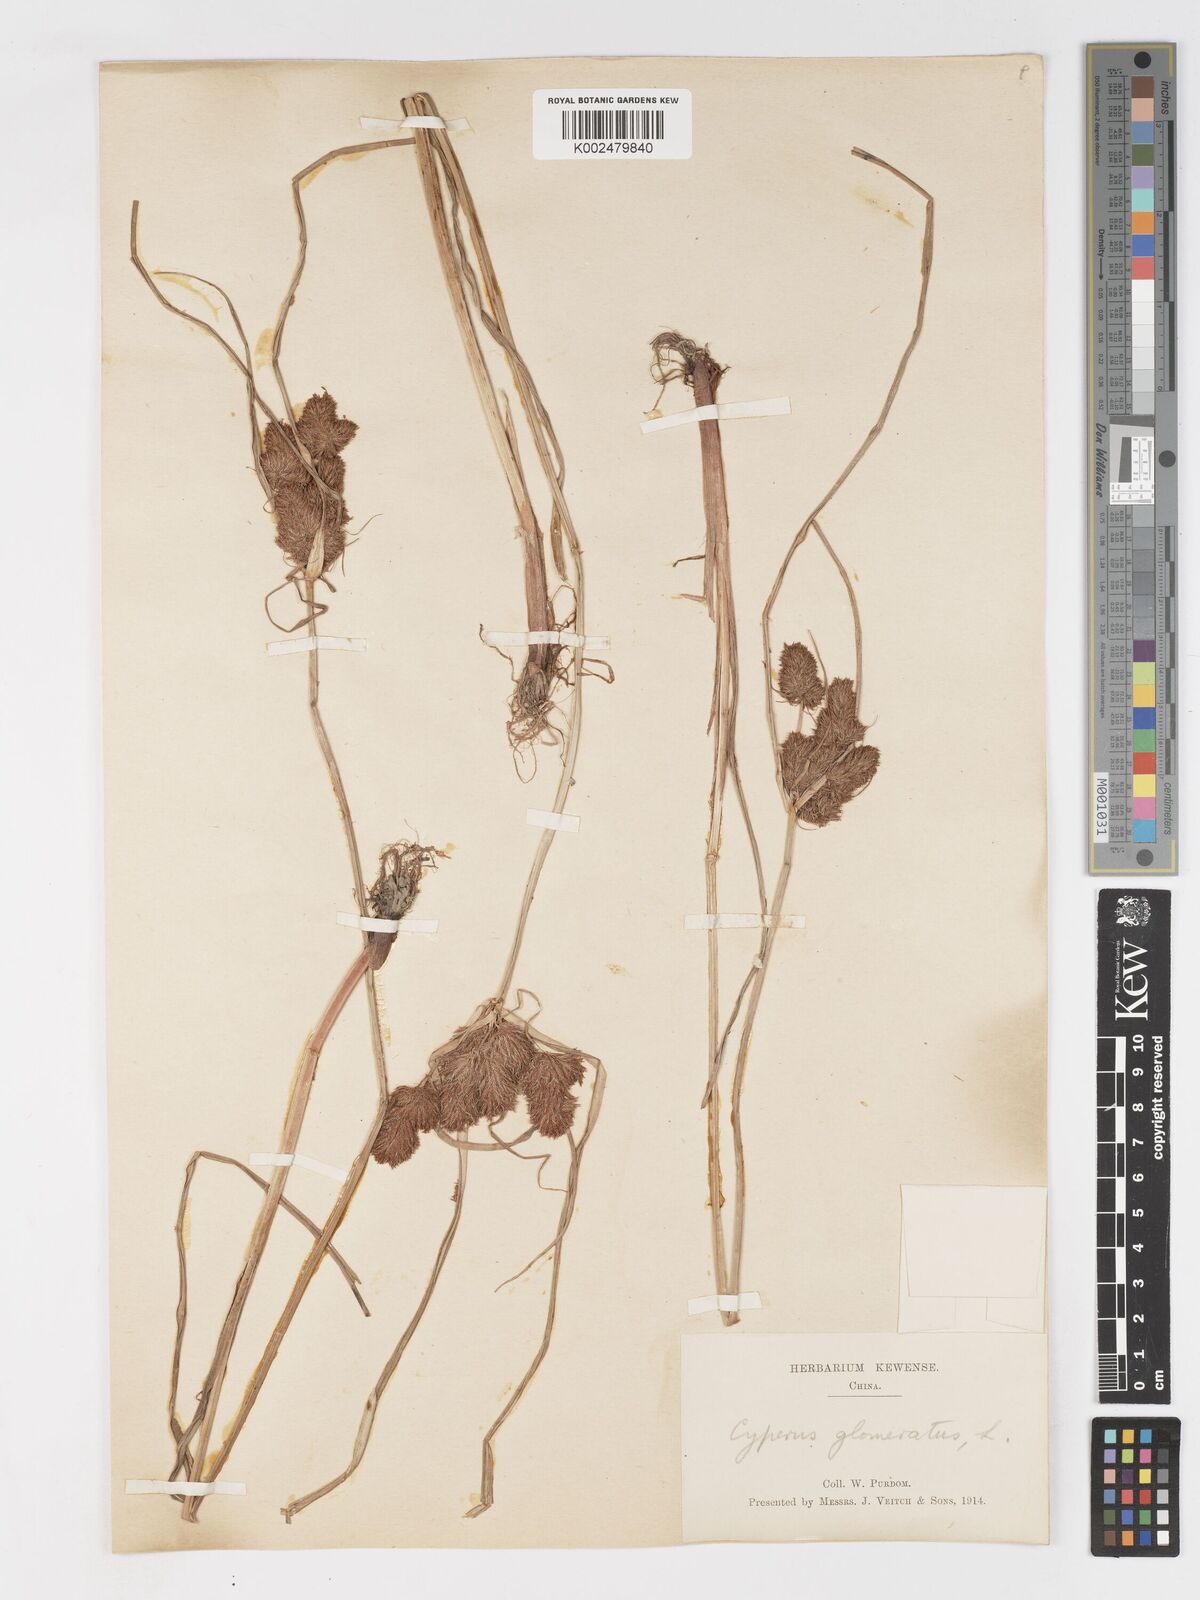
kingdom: Plantae
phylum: Tracheophyta
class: Liliopsida
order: Poales
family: Cyperaceae
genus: Cyperus
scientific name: Cyperus glomeratus
